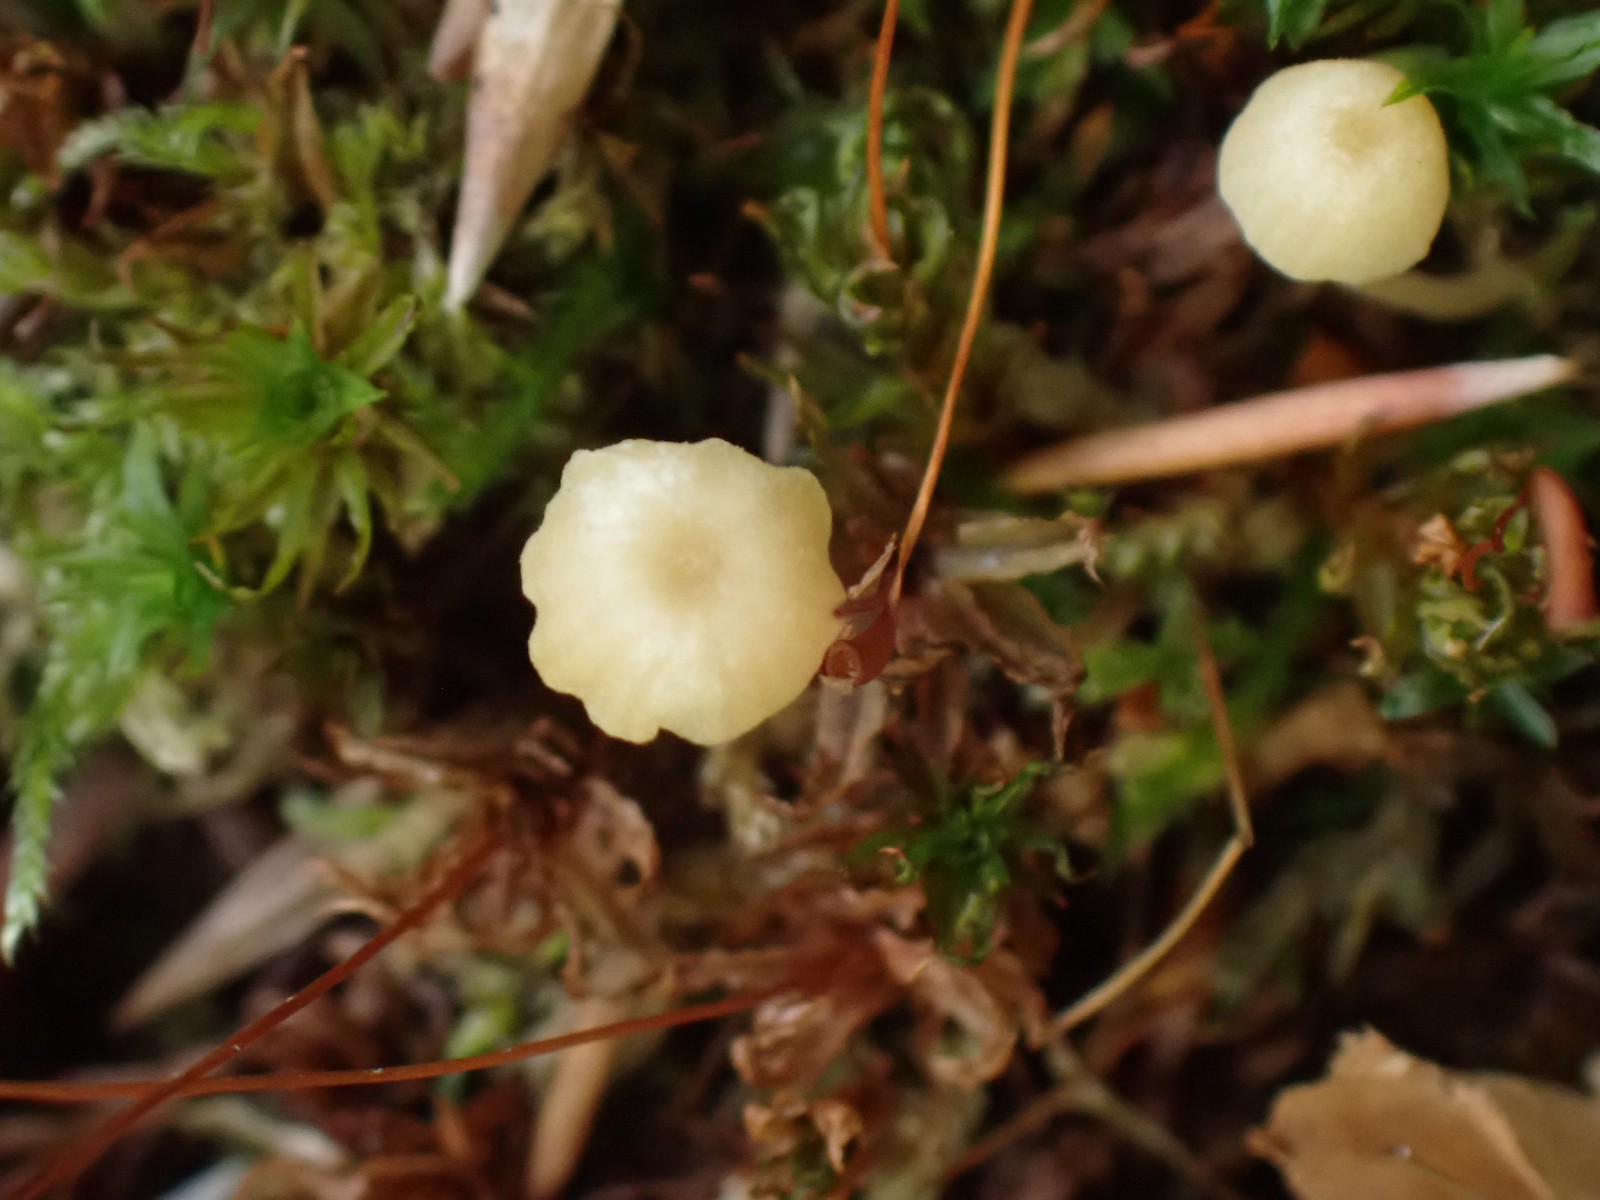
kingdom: Fungi
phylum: Basidiomycota
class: Agaricomycetes
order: Hymenochaetales
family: Rickenellaceae
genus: Rickenella
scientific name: Rickenella fibula
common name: orange mosnavlehat
